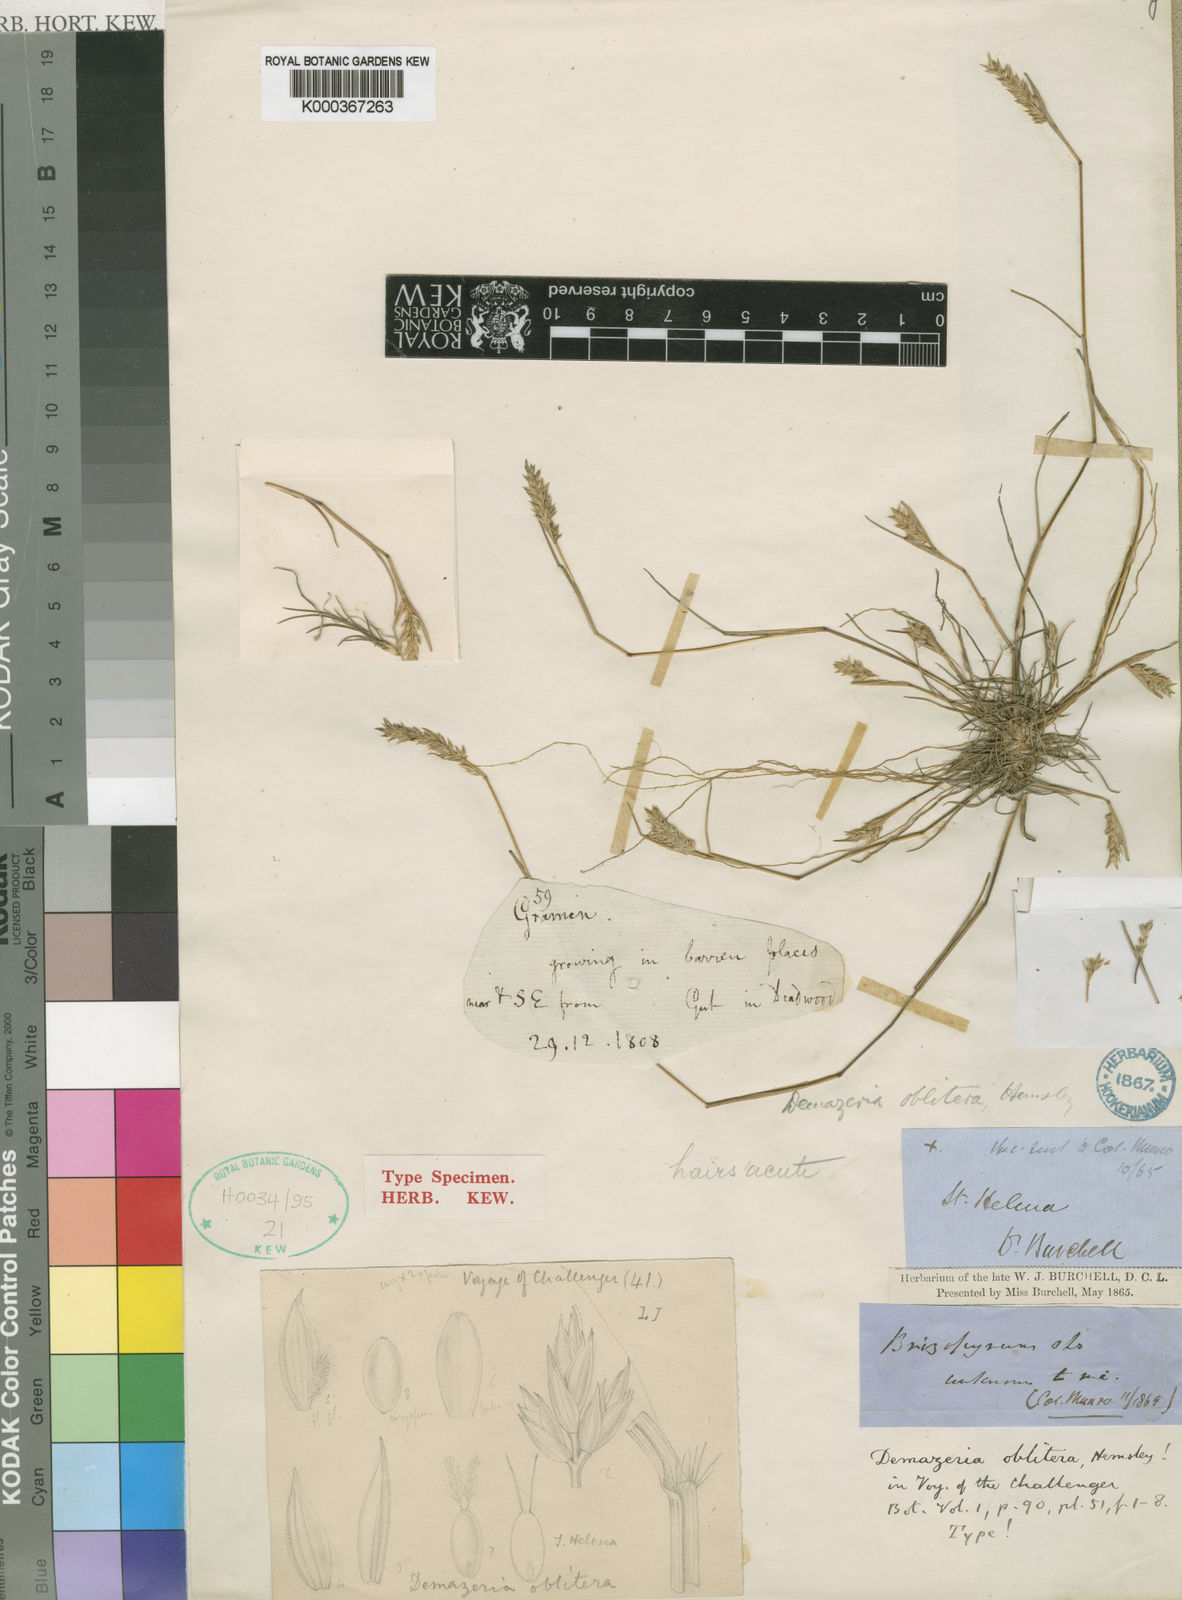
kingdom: Plantae
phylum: Tracheophyta
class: Liliopsida
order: Poales
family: Poaceae
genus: Tribolium
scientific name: Tribolium obliterum
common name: Capetown grass
